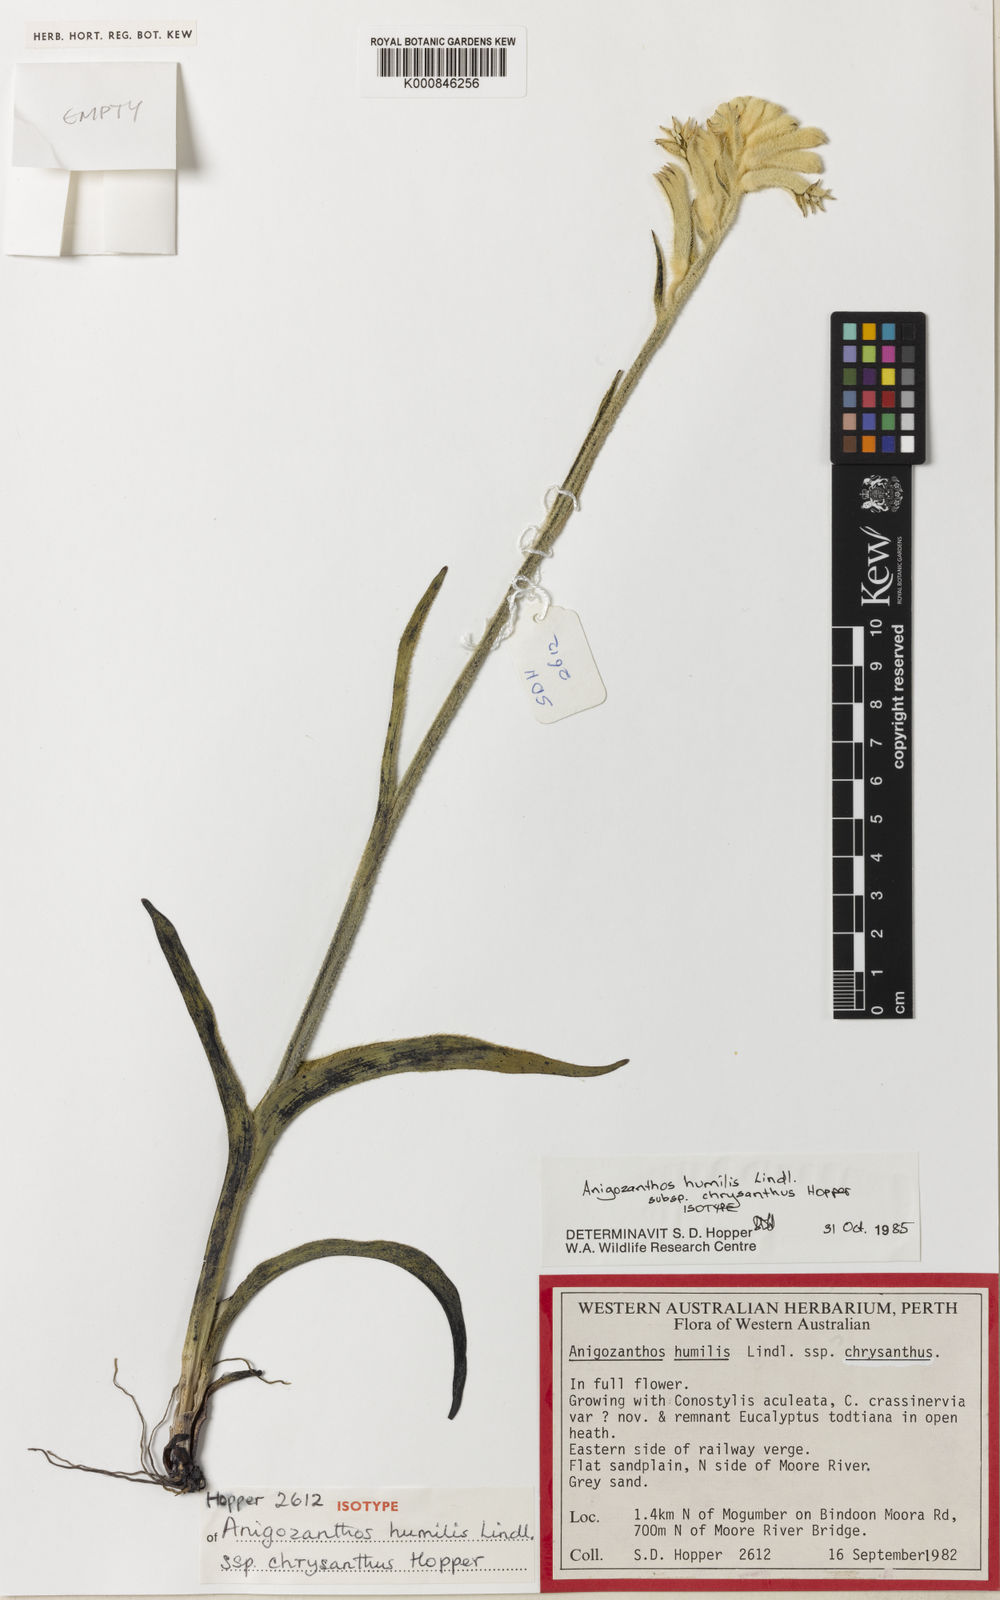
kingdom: Plantae
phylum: Tracheophyta
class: Liliopsida
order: Commelinales
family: Haemodoraceae
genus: Anigozanthos
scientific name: Anigozanthos humilis
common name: Cat's-paw
